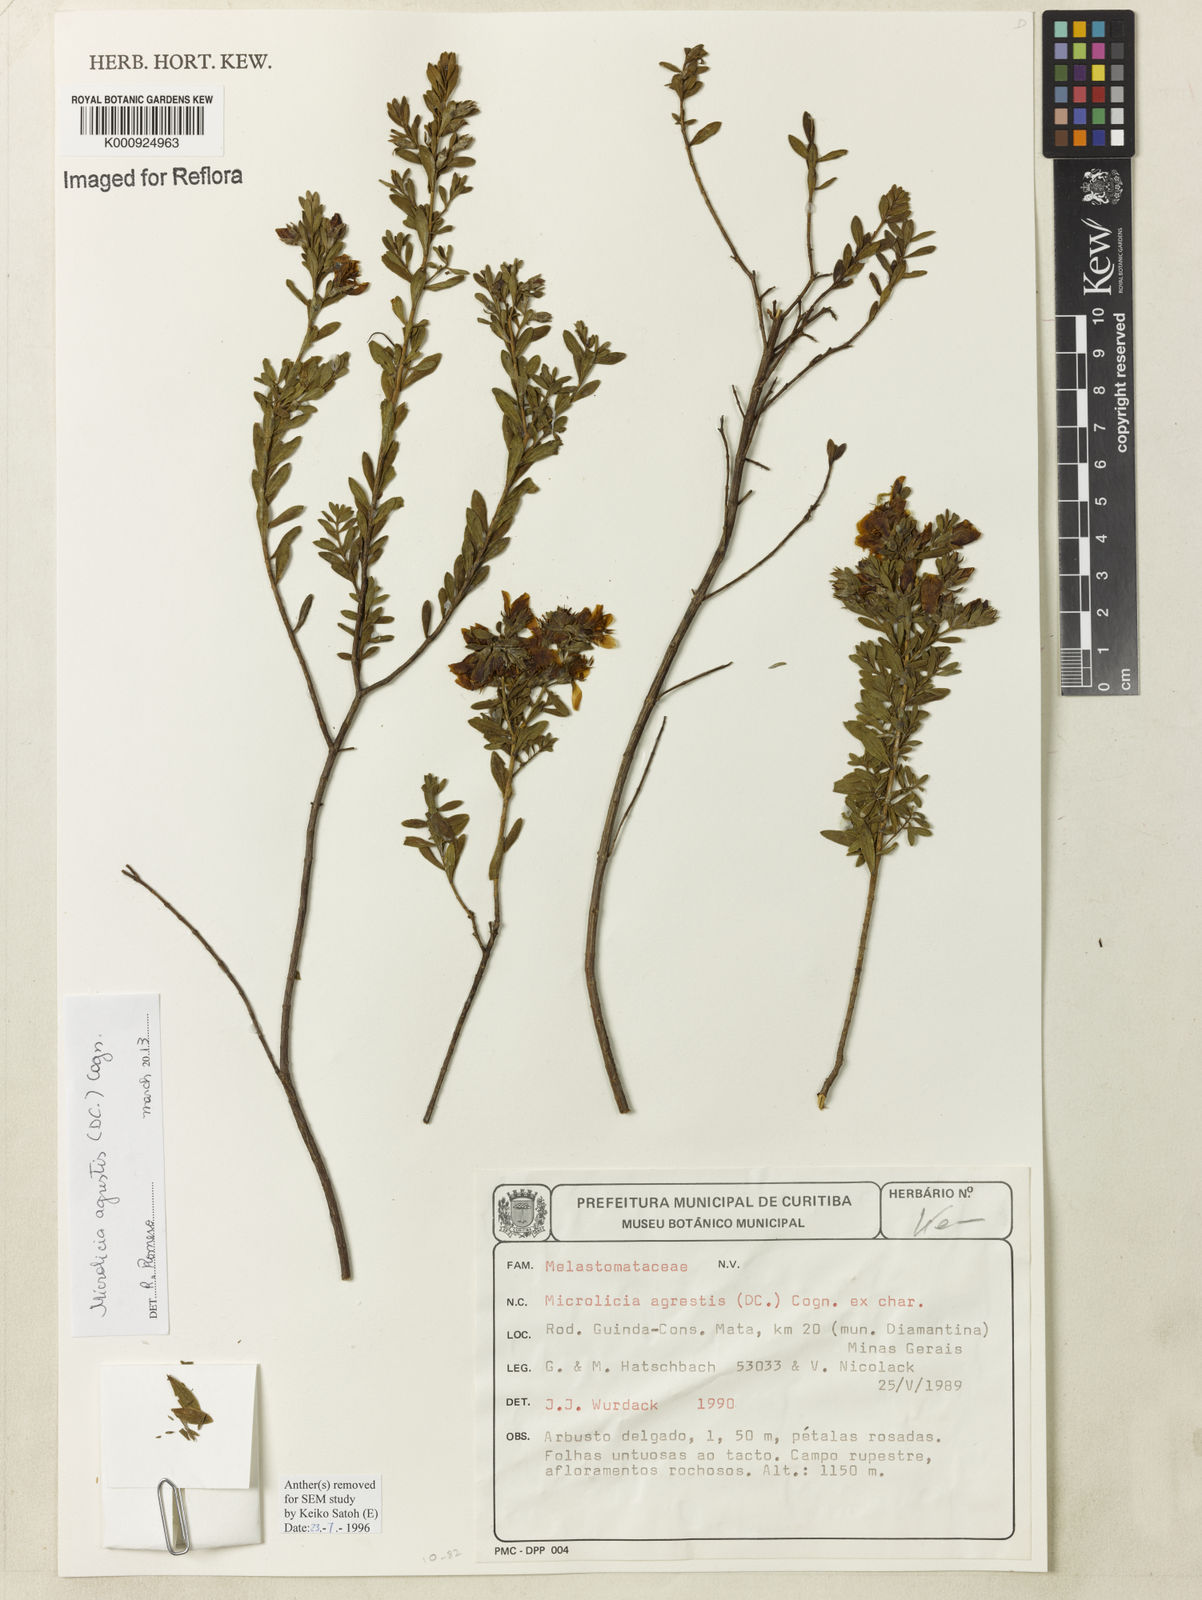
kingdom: Plantae
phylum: Tracheophyta
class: Magnoliopsida
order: Myrtales
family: Melastomataceae
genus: Microlicia
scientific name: Microlicia agrestis
